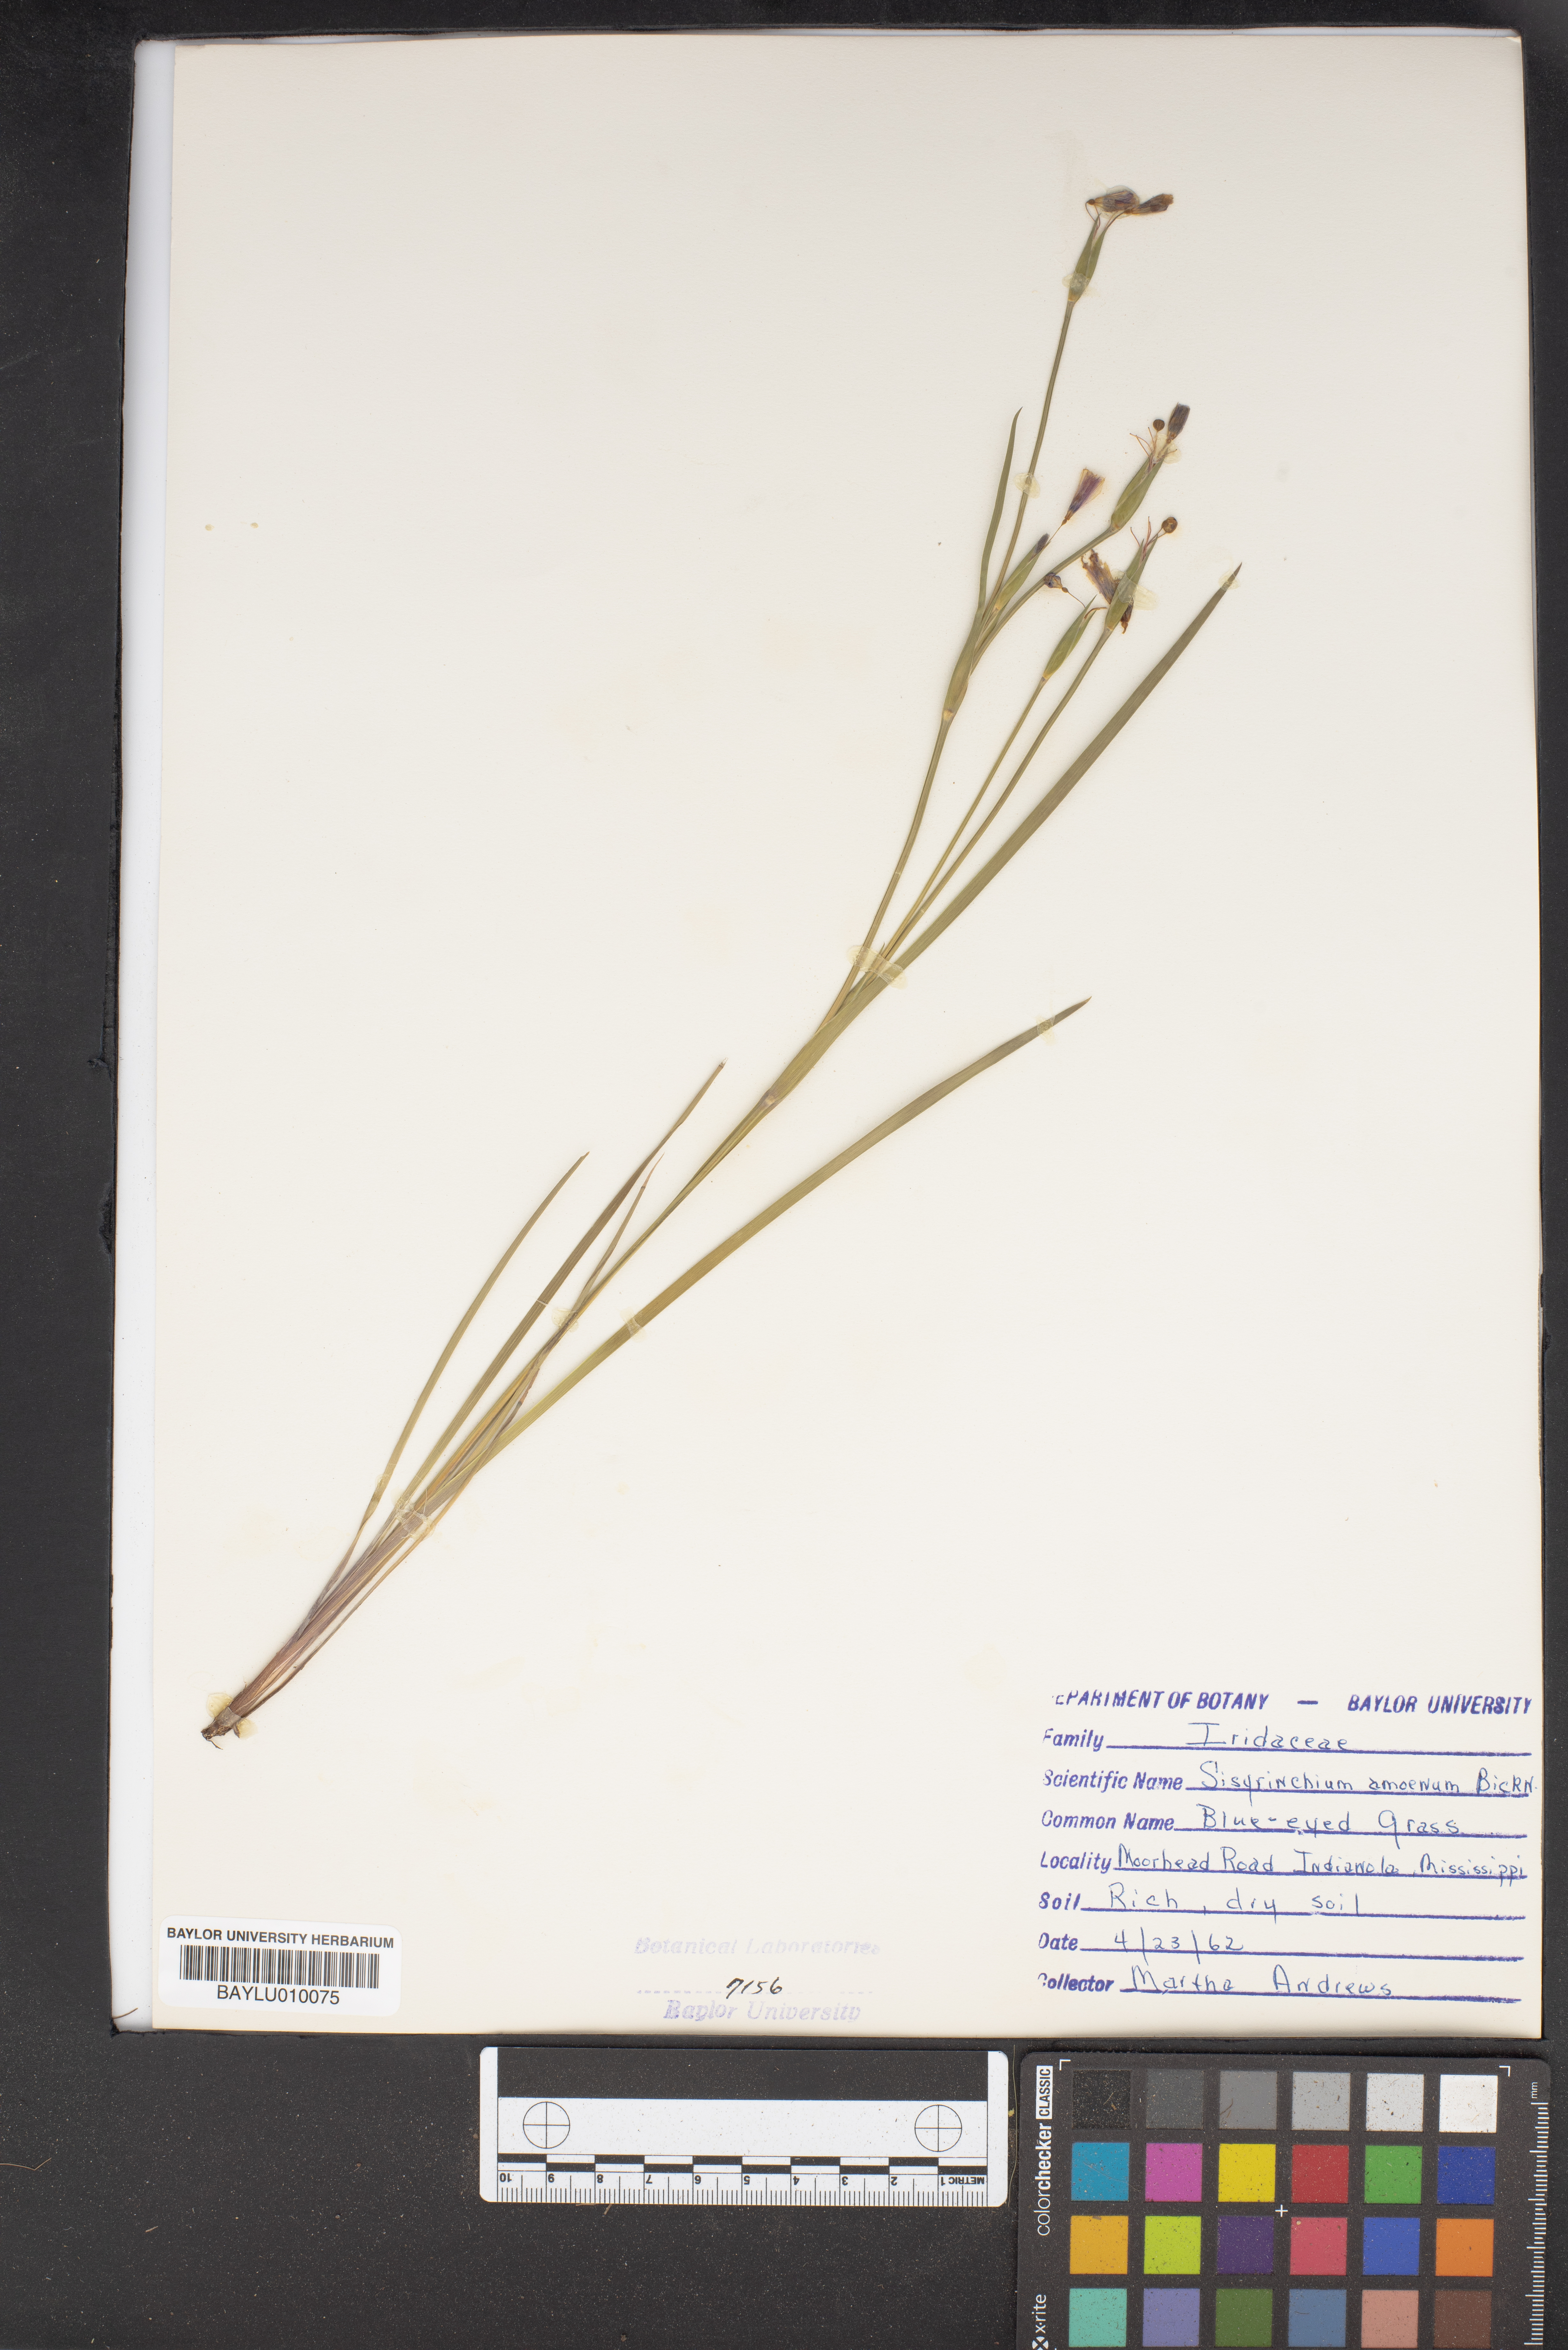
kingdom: Plantae
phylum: Tracheophyta
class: Liliopsida
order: Asparagales
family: Iridaceae
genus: Sisyrinchium
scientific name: Sisyrinchium ensigerum
